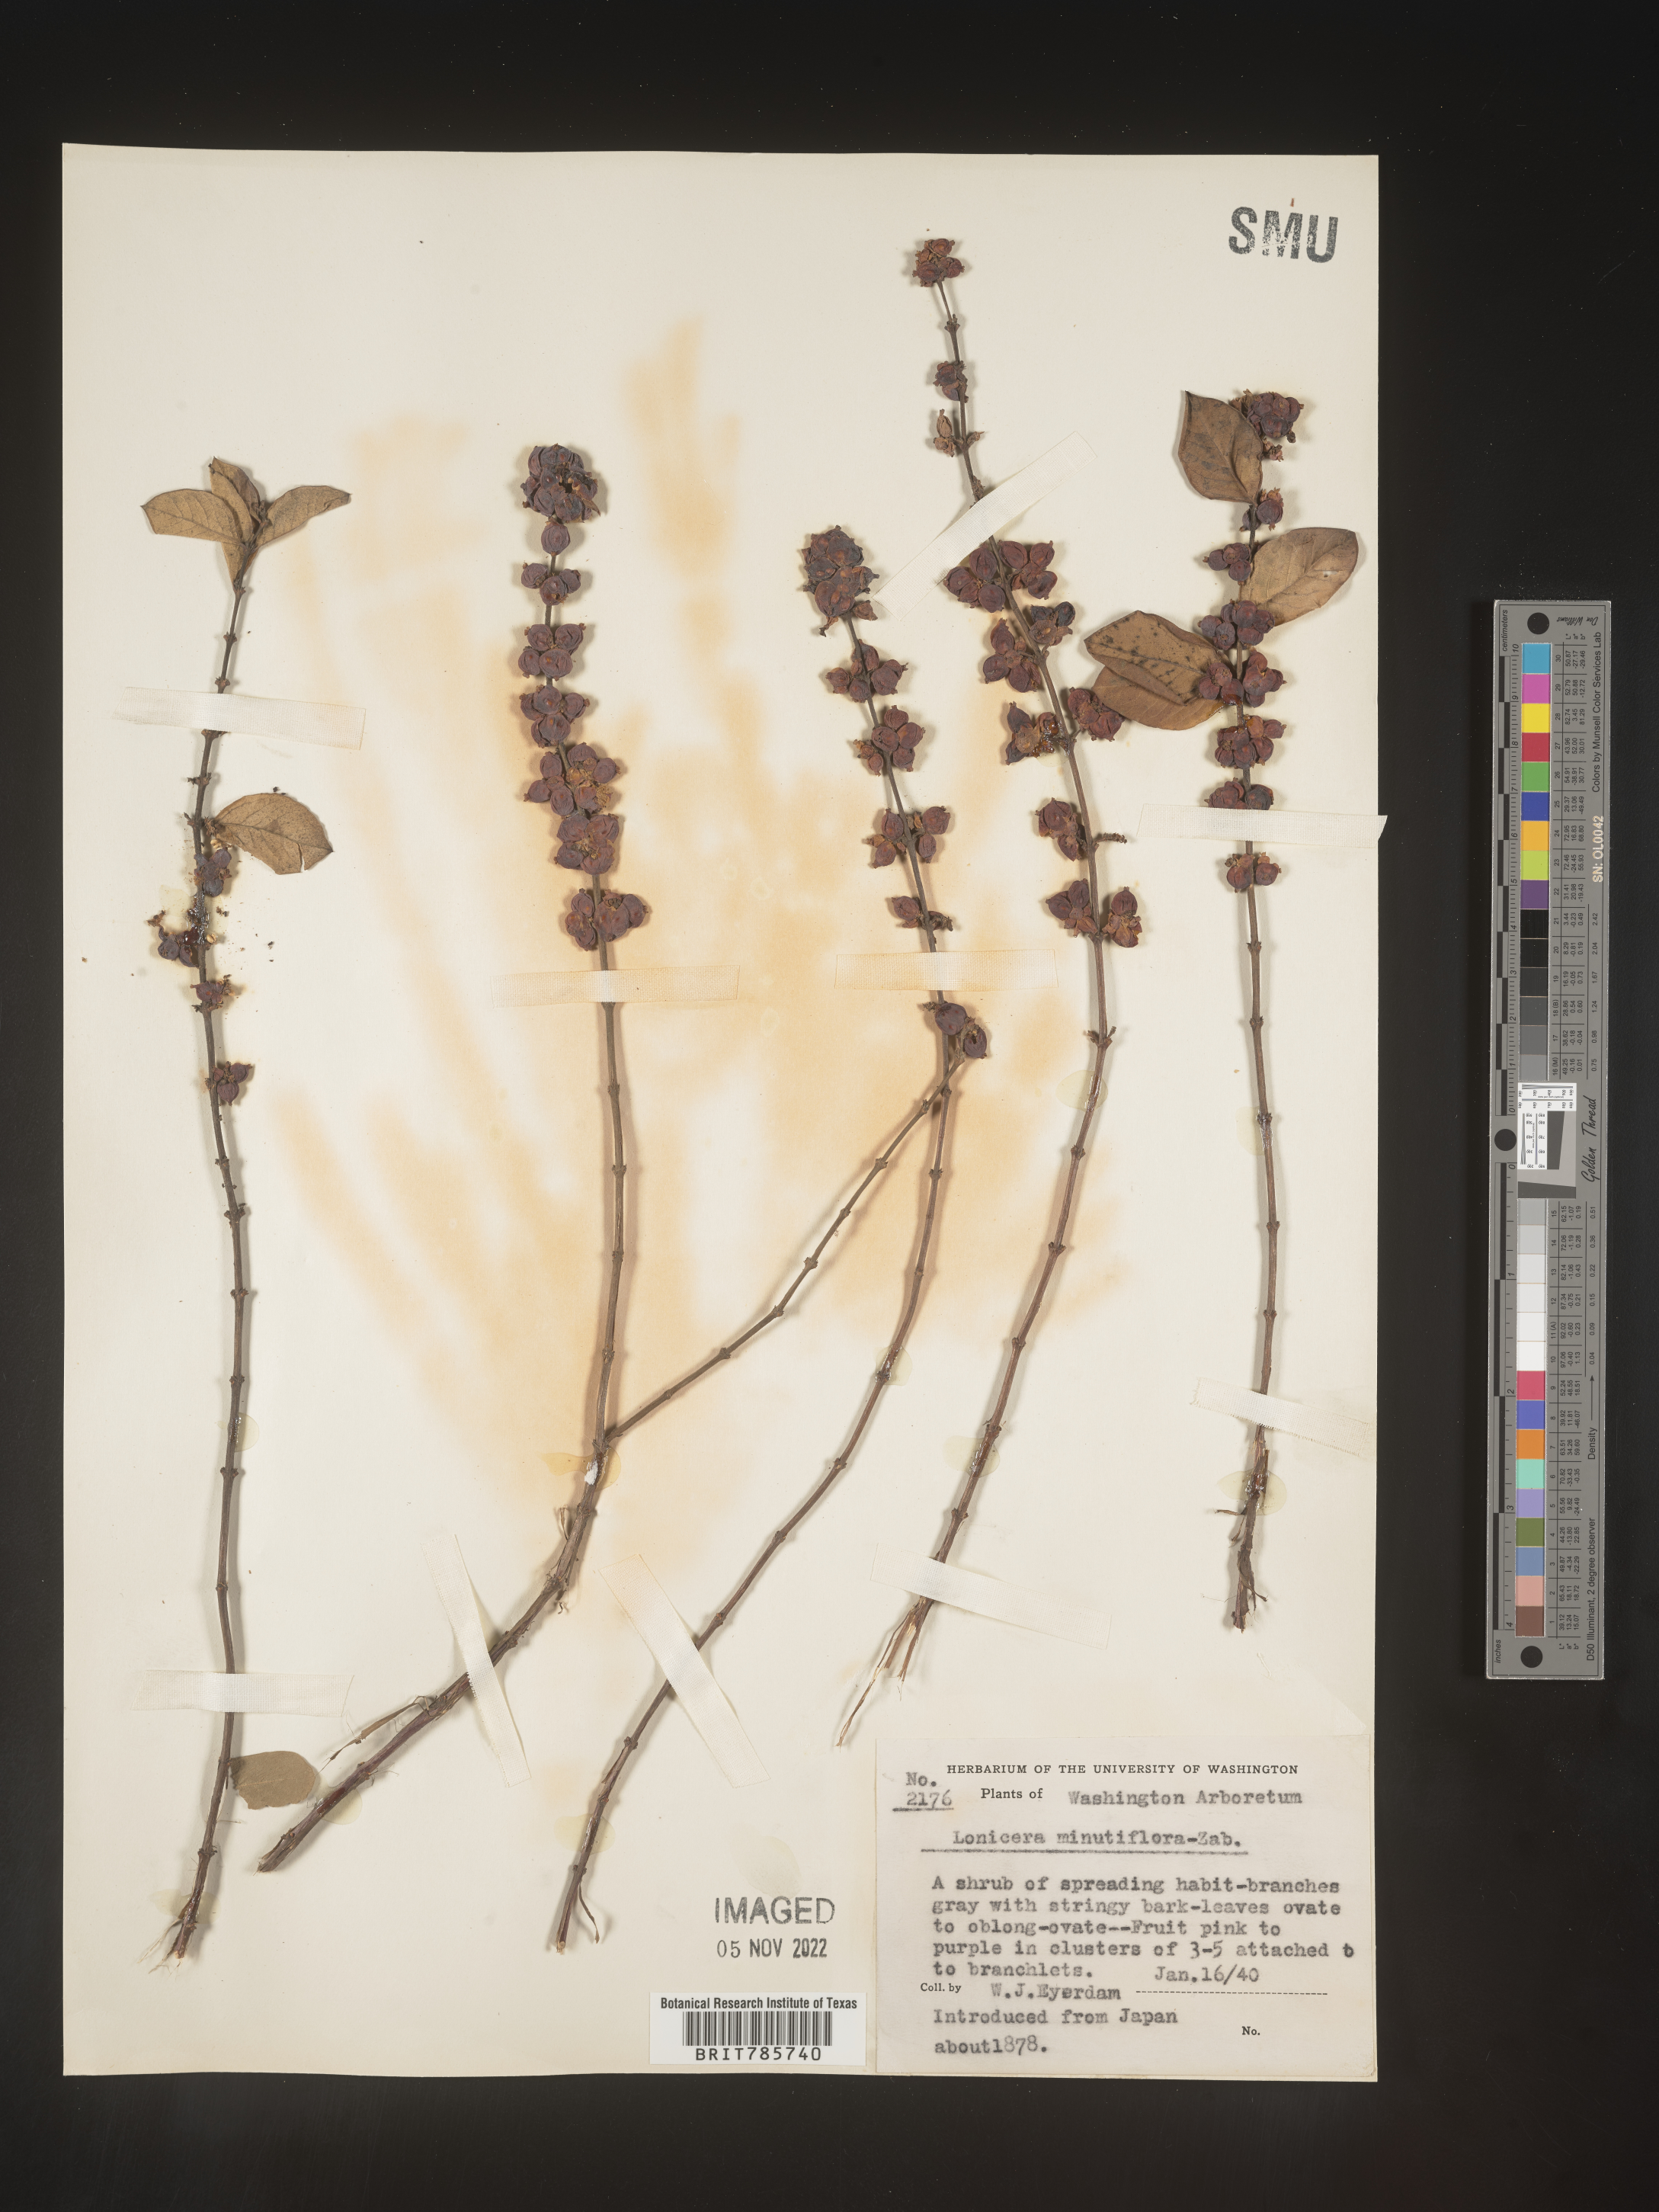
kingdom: Plantae
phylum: Tracheophyta
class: Magnoliopsida
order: Dipsacales
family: Caprifoliaceae
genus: Lonicera
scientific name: Lonicera
